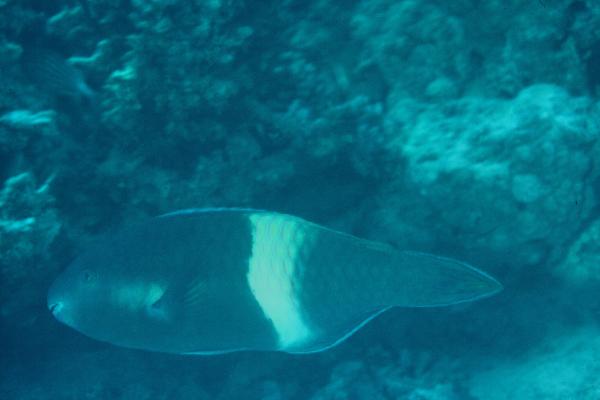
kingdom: Animalia
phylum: Chordata
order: Perciformes
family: Scaridae
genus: Scarus
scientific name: Scarus fuscopurpureus
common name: Purple-brown parrotfish
